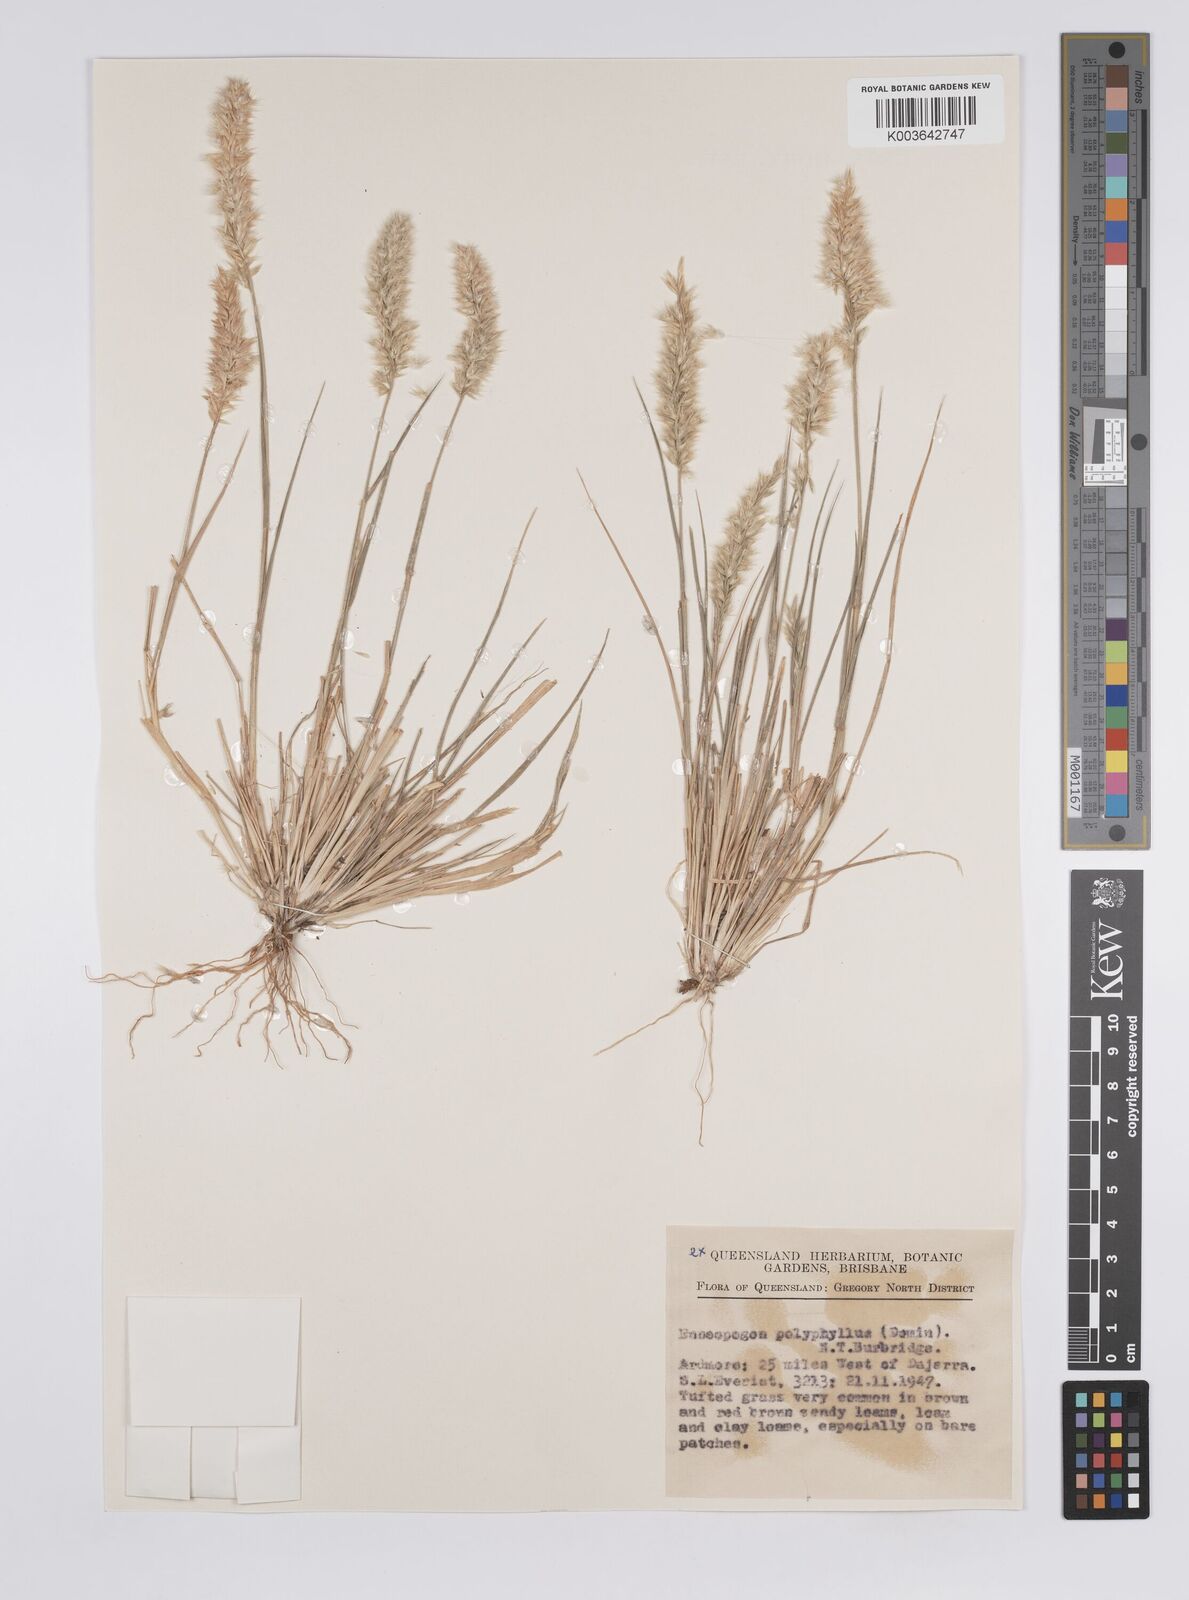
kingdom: Plantae
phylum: Tracheophyta
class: Liliopsida
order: Poales
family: Poaceae
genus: Enneapogon
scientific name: Enneapogon polyphyllus
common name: Leafy nineawn
